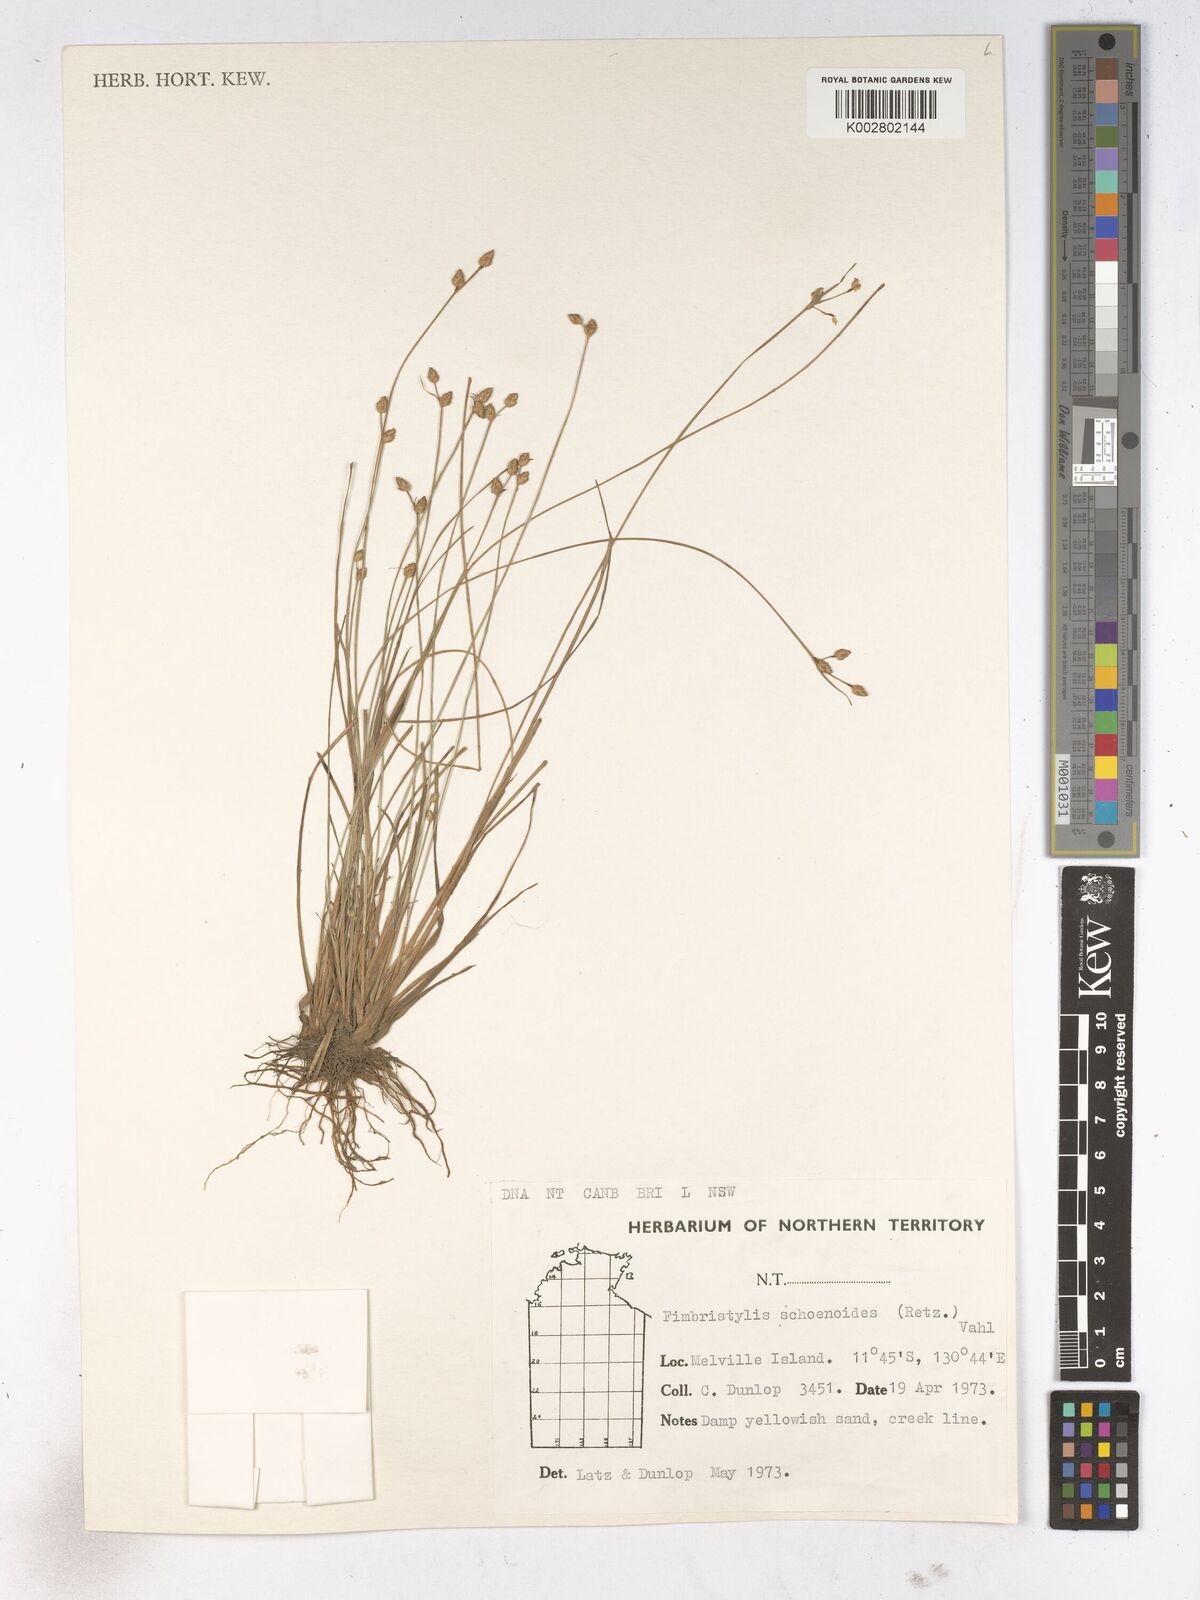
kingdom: Plantae
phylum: Tracheophyta
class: Liliopsida
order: Poales
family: Cyperaceae
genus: Fimbristylis
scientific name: Fimbristylis schoenoides
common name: Ditch fimbry
